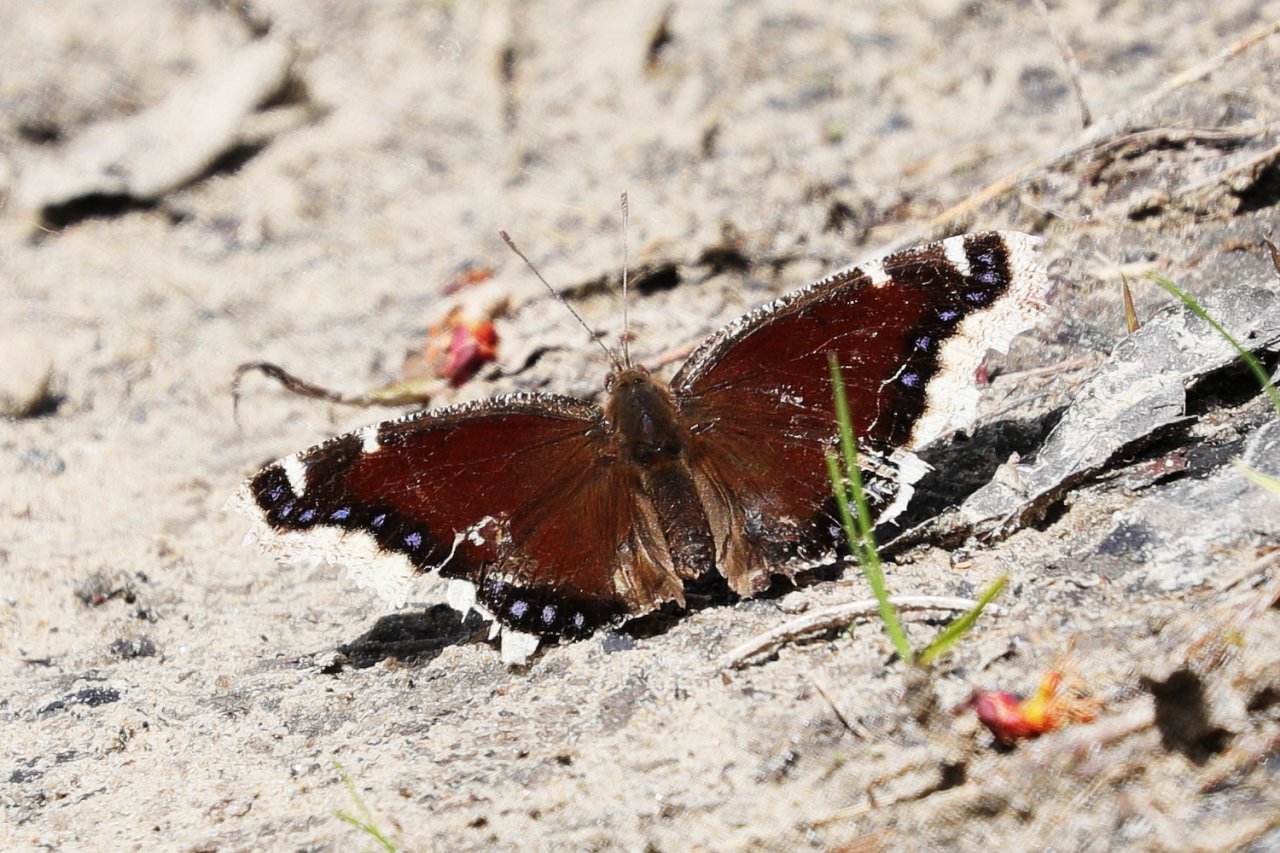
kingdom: Animalia
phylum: Arthropoda
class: Insecta
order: Lepidoptera
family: Nymphalidae
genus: Nymphalis
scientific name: Nymphalis antiopa
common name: Mourning Cloak
